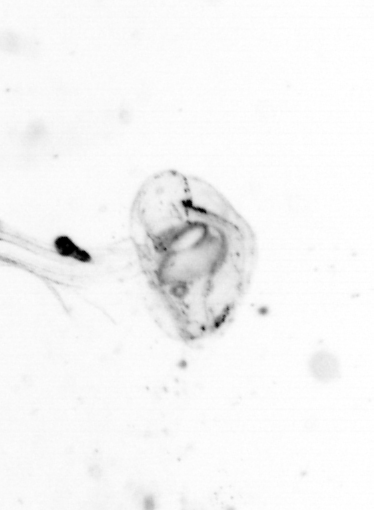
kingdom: Animalia
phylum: Chordata
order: Copelata
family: Fritillariidae
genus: Appendicularia
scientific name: Appendicularia
